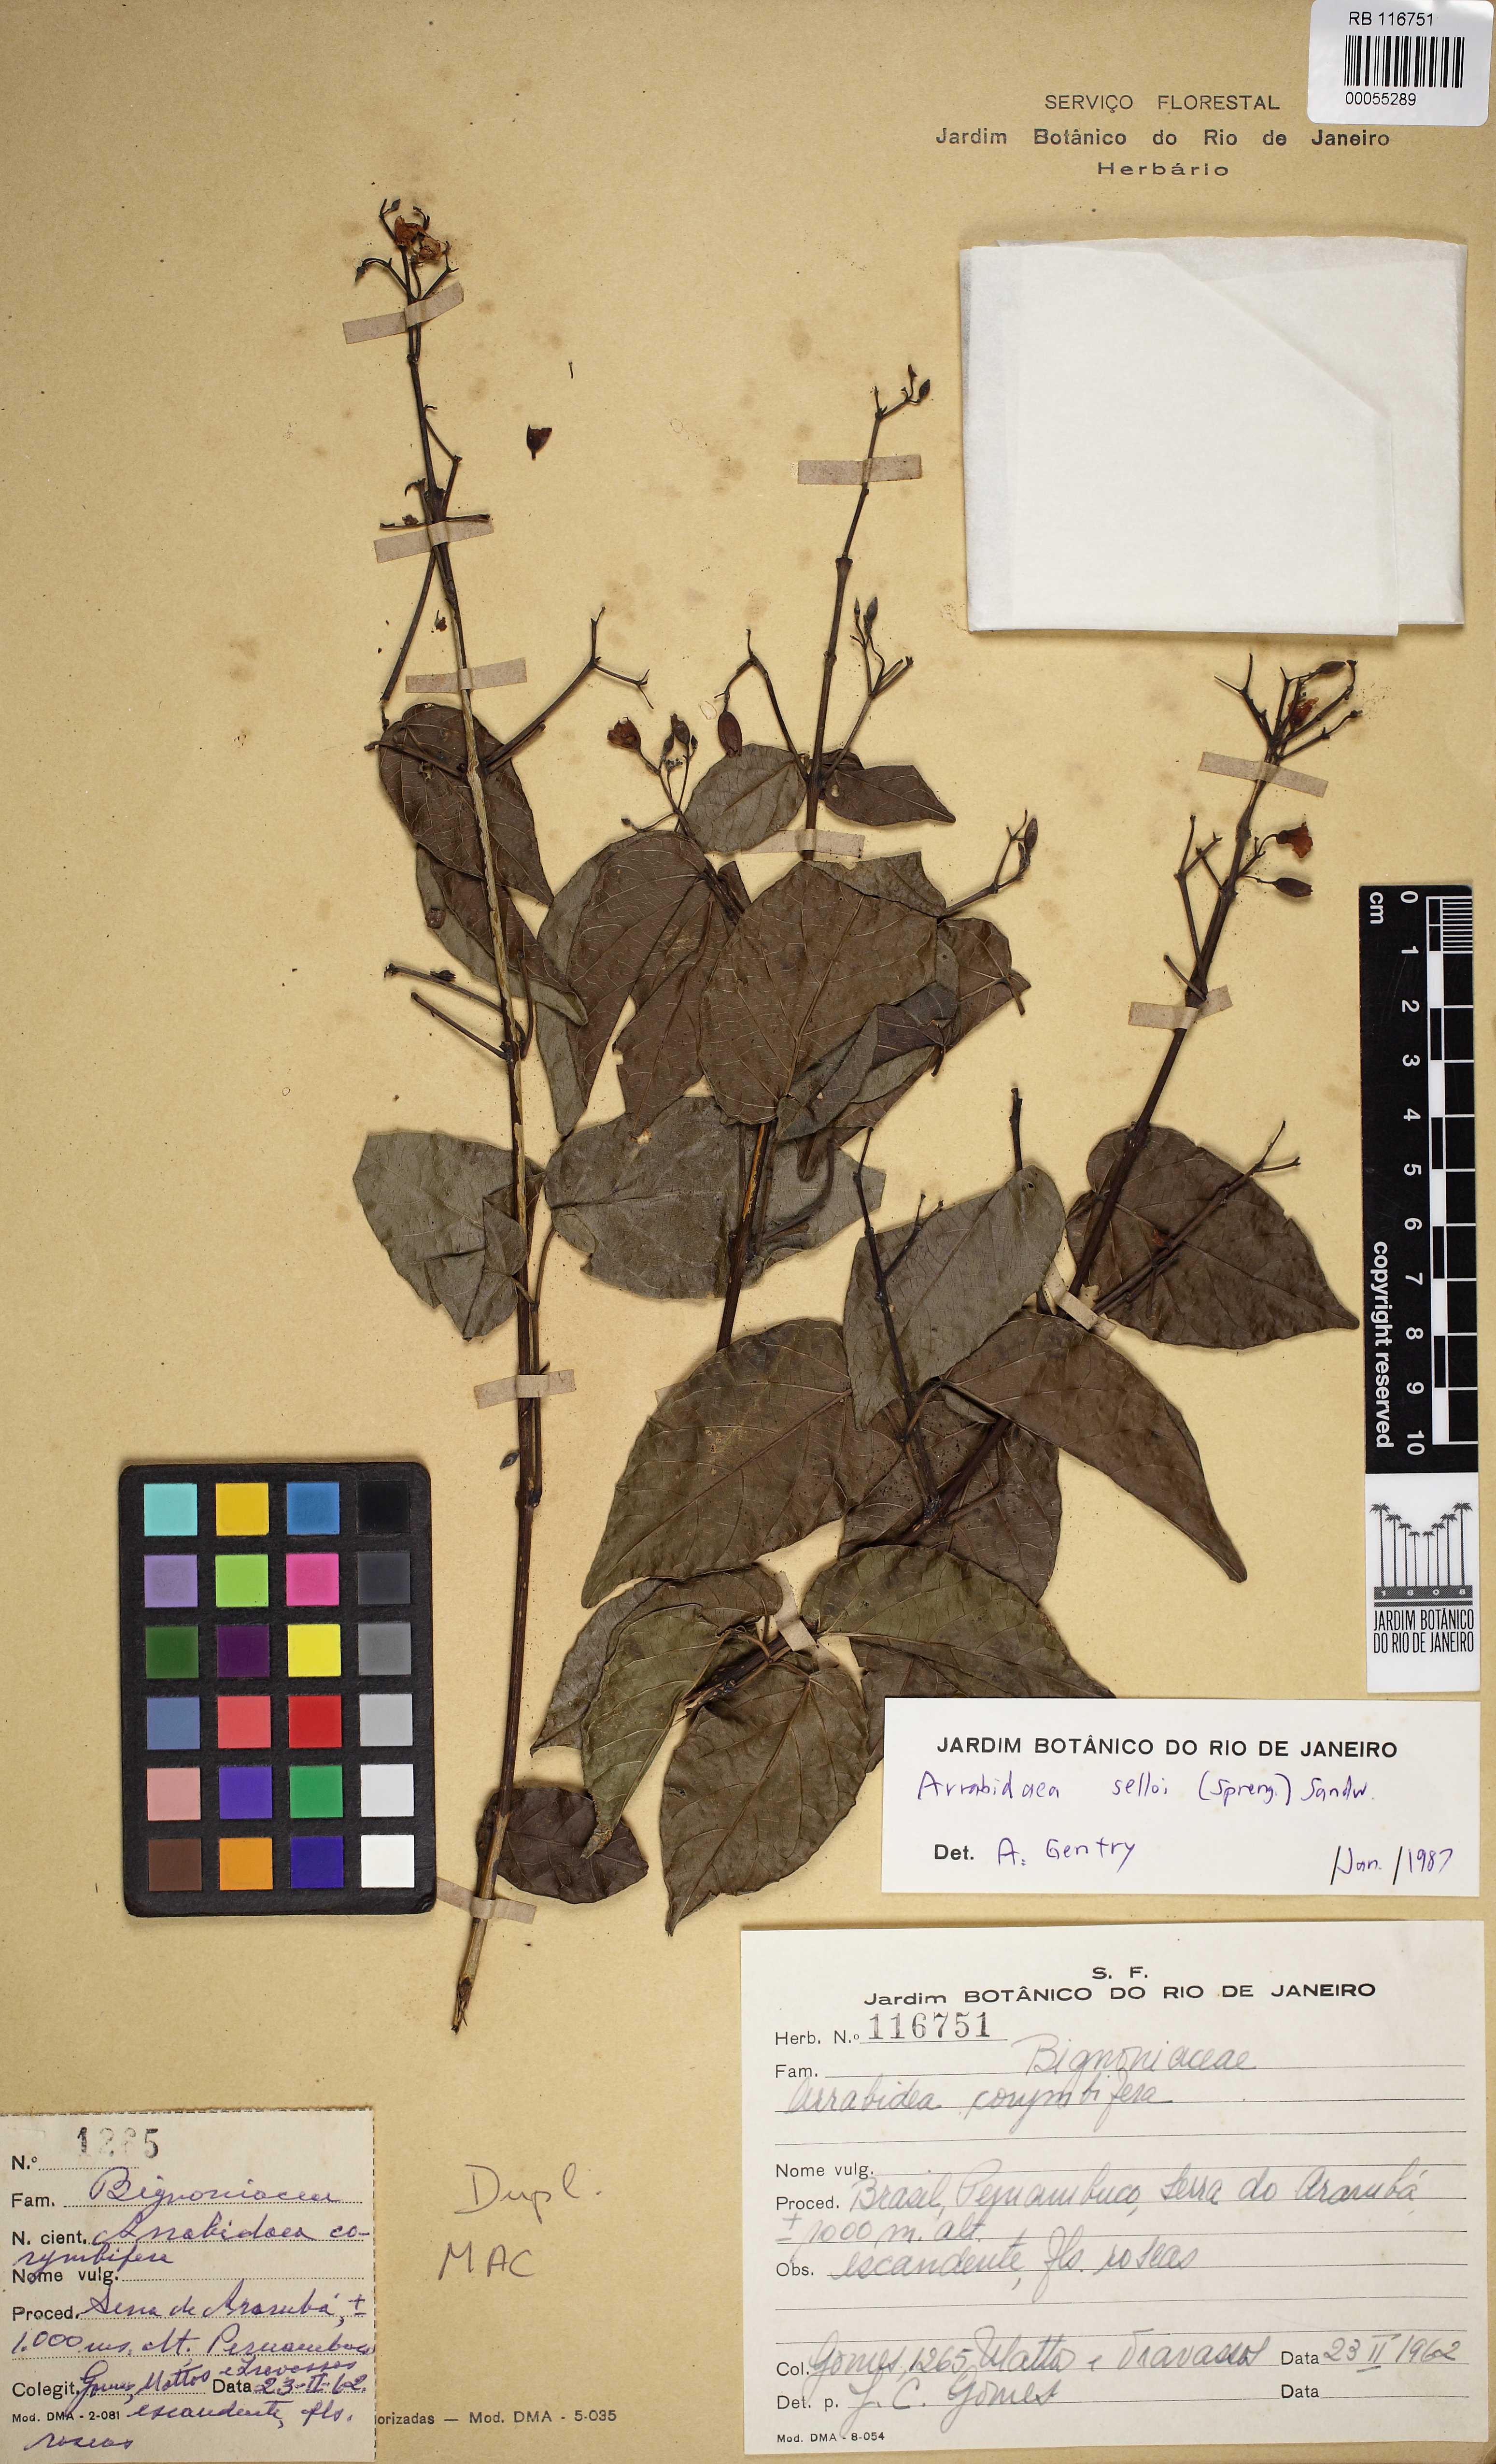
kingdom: Plantae
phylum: Tracheophyta
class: Magnoliopsida
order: Lamiales
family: Bignoniaceae
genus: Tanaecium
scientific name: Tanaecium selloi
